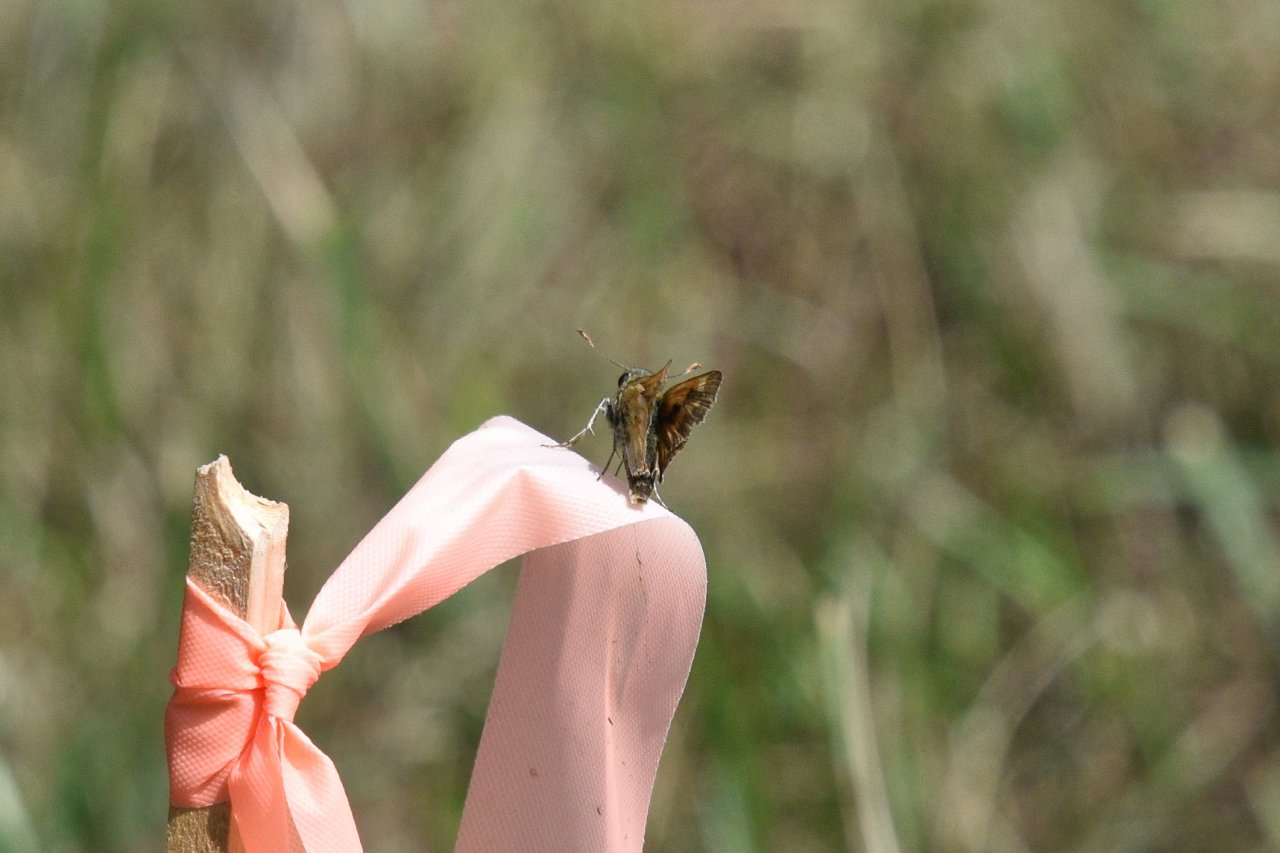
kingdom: Animalia
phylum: Arthropoda
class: Insecta
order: Lepidoptera
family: Hesperiidae
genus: Polites
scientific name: Polites
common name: Long Dash Skipper
